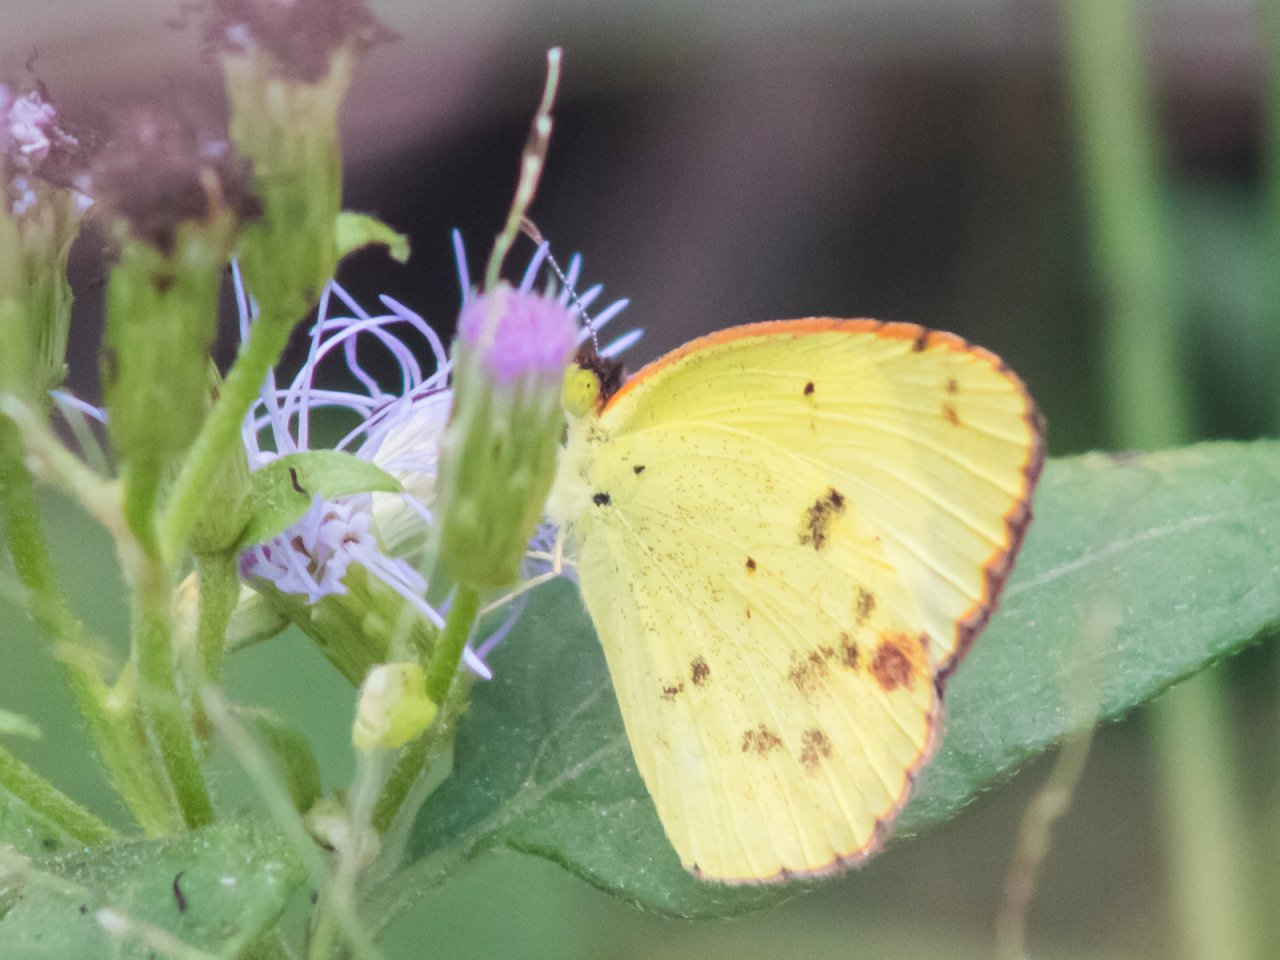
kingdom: Animalia
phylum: Arthropoda
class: Insecta
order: Lepidoptera
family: Pieridae
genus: Pyrisitia
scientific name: Pyrisitia lisa
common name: Little Yellow
